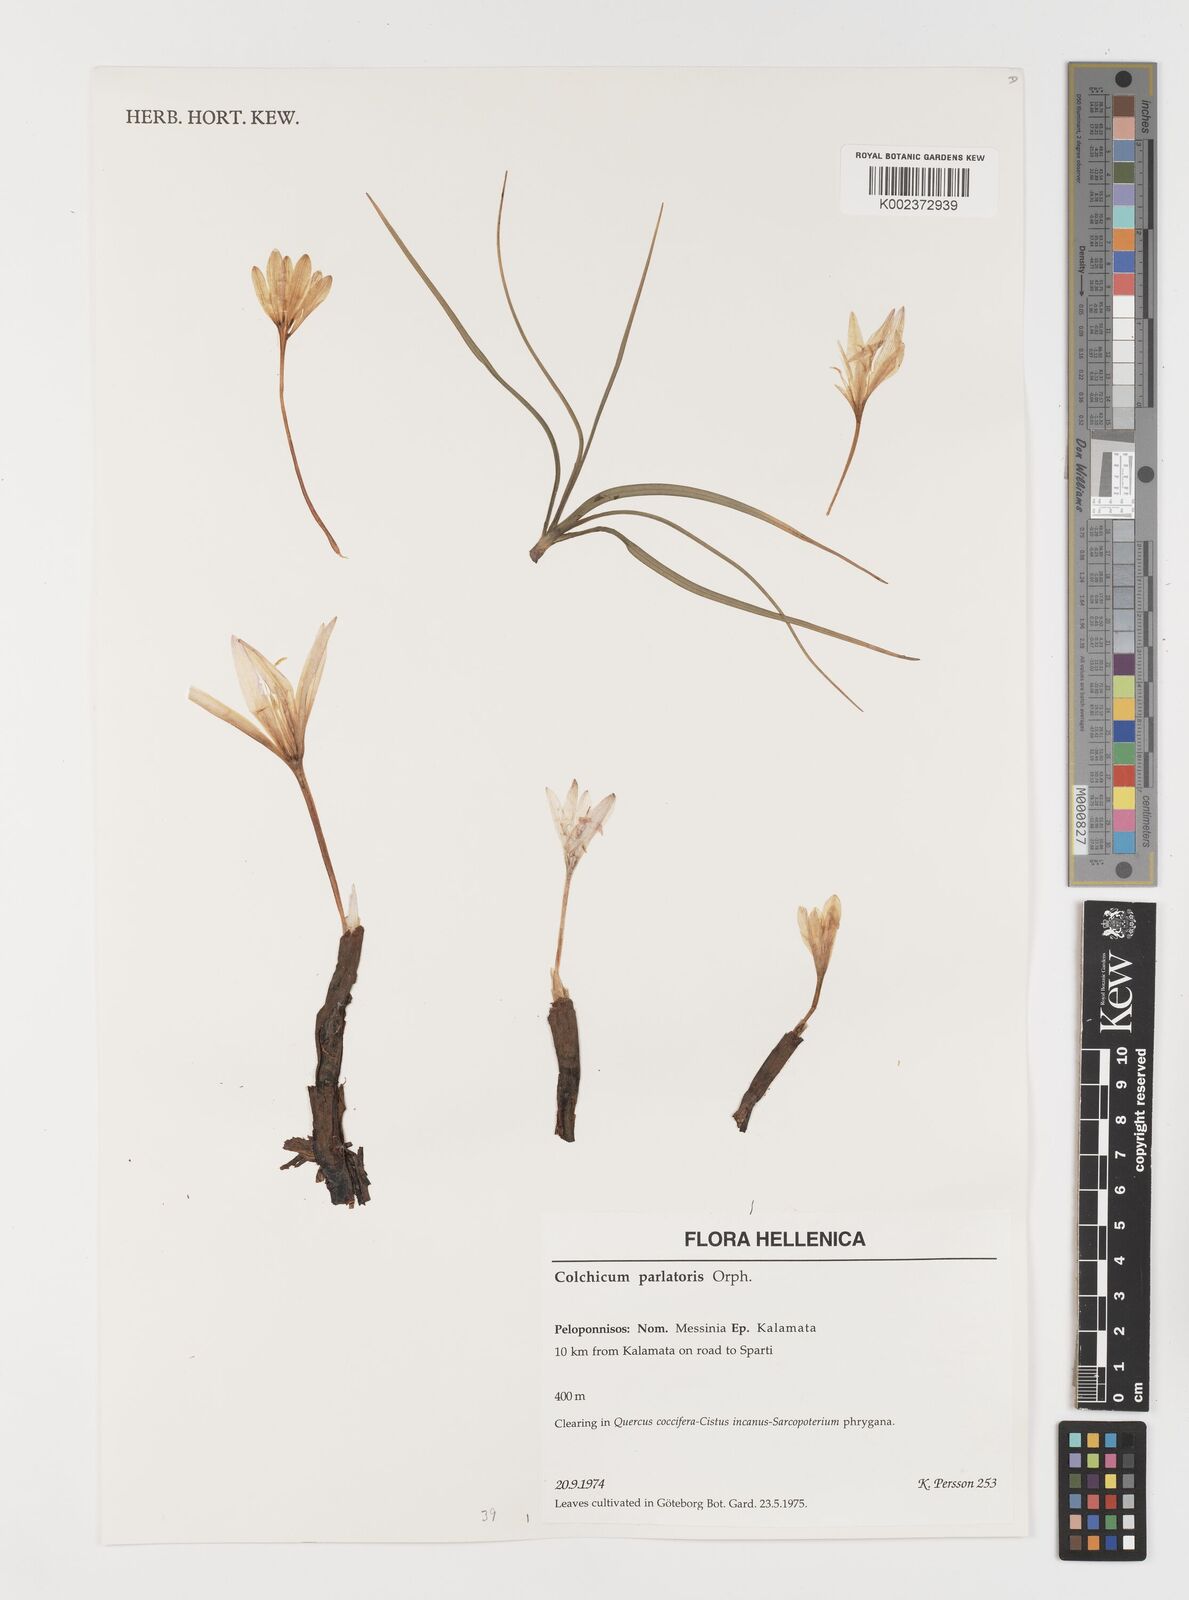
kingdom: Plantae
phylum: Tracheophyta
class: Liliopsida
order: Liliales
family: Colchicaceae
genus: Colchicum
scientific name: Colchicum parlatoris
